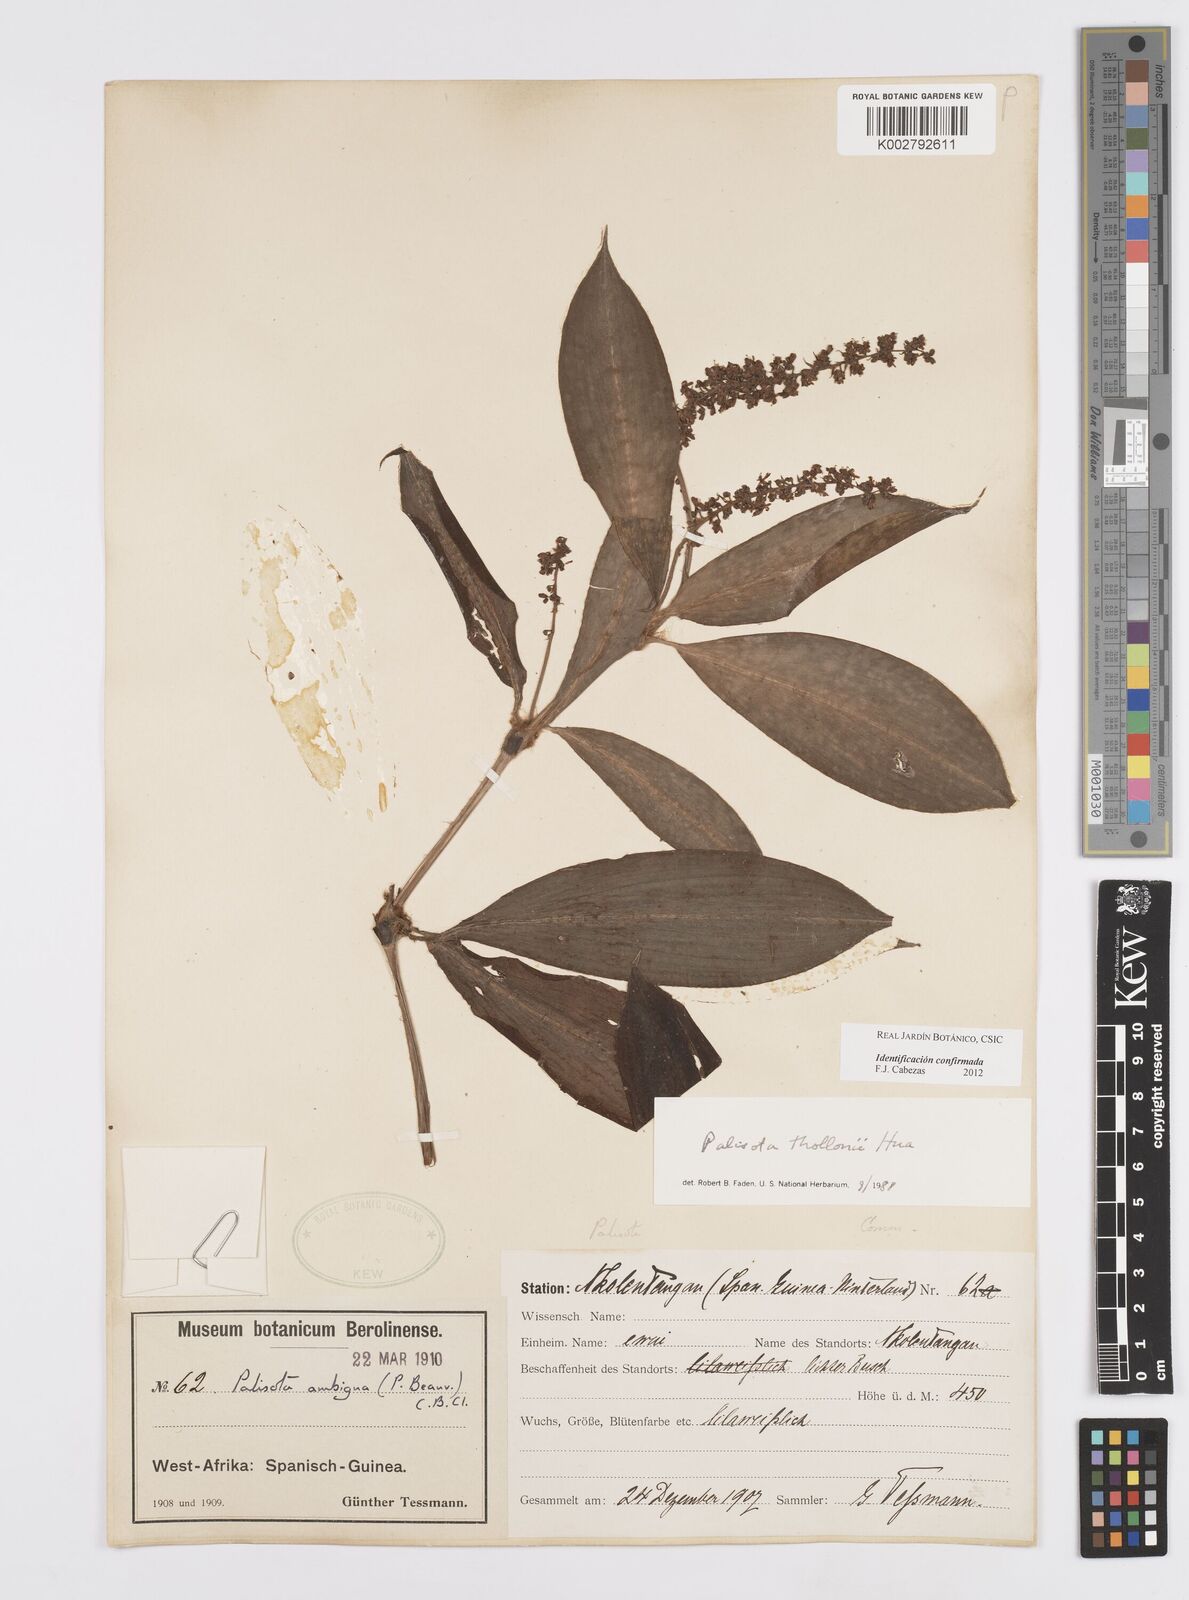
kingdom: Plantae
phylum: Tracheophyta
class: Liliopsida
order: Commelinales
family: Commelinaceae
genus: Palisota
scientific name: Palisota thollonii
